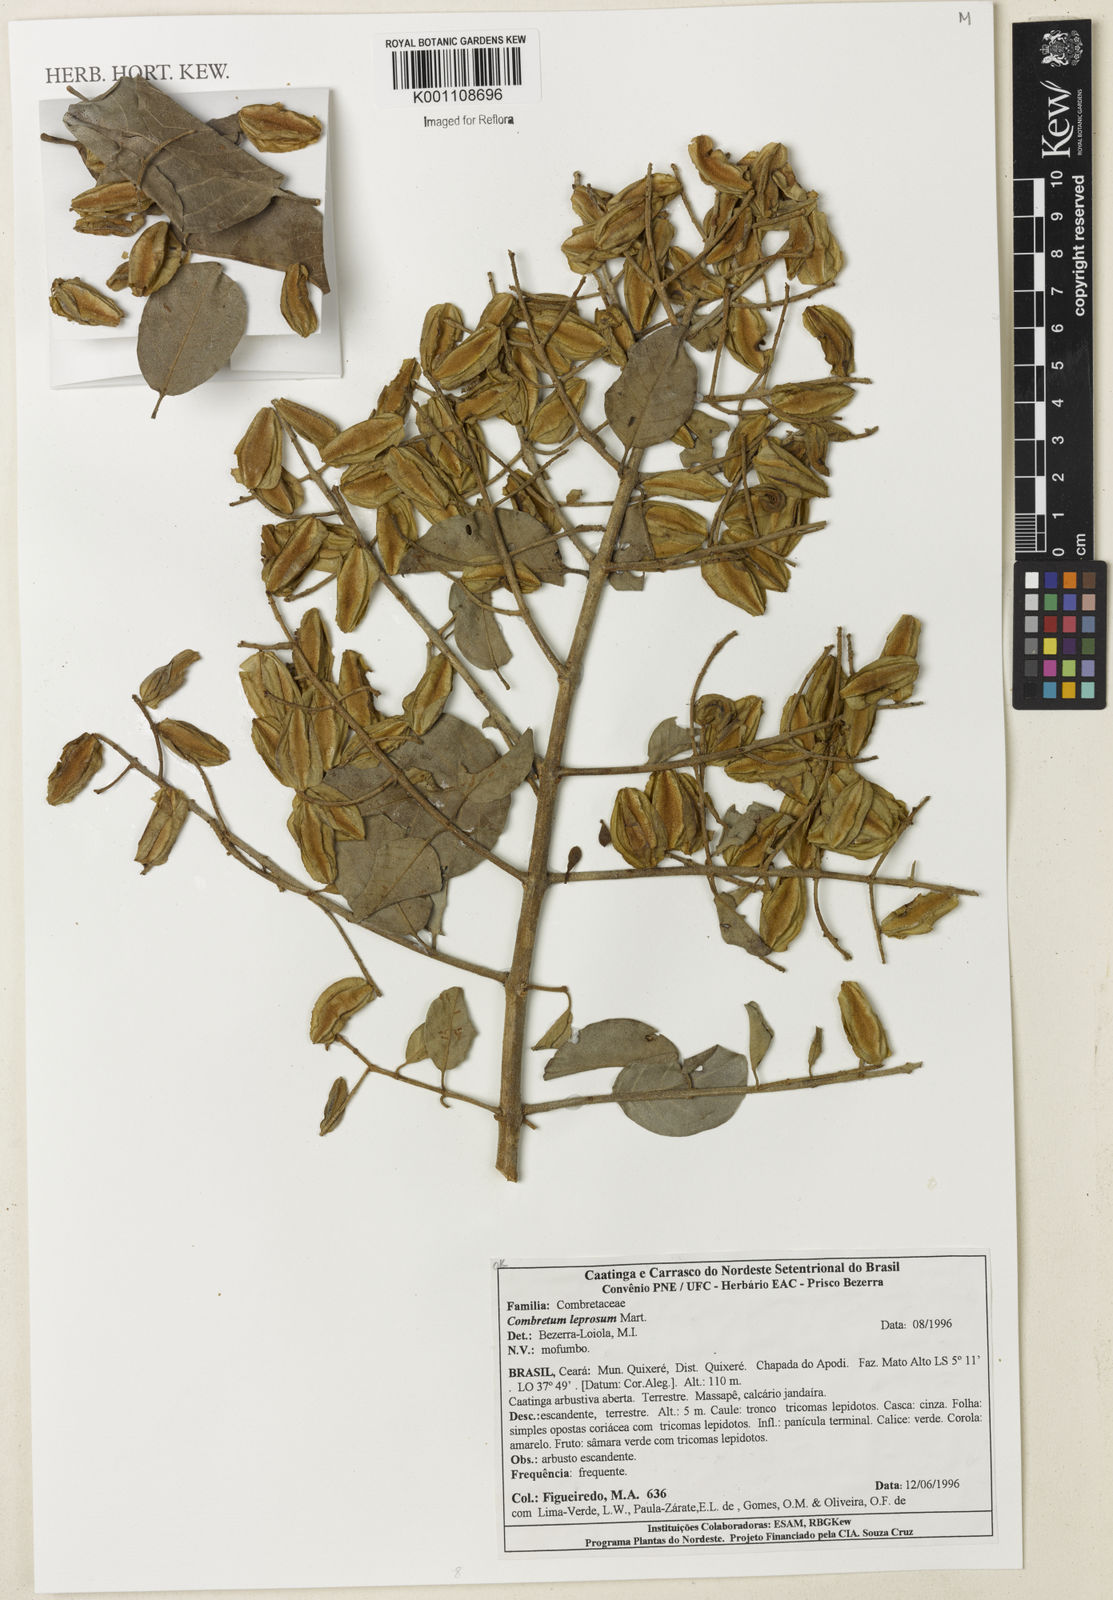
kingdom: Plantae
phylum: Tracheophyta
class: Magnoliopsida
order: Myrtales
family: Combretaceae
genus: Combretum
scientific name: Combretum leprosum
